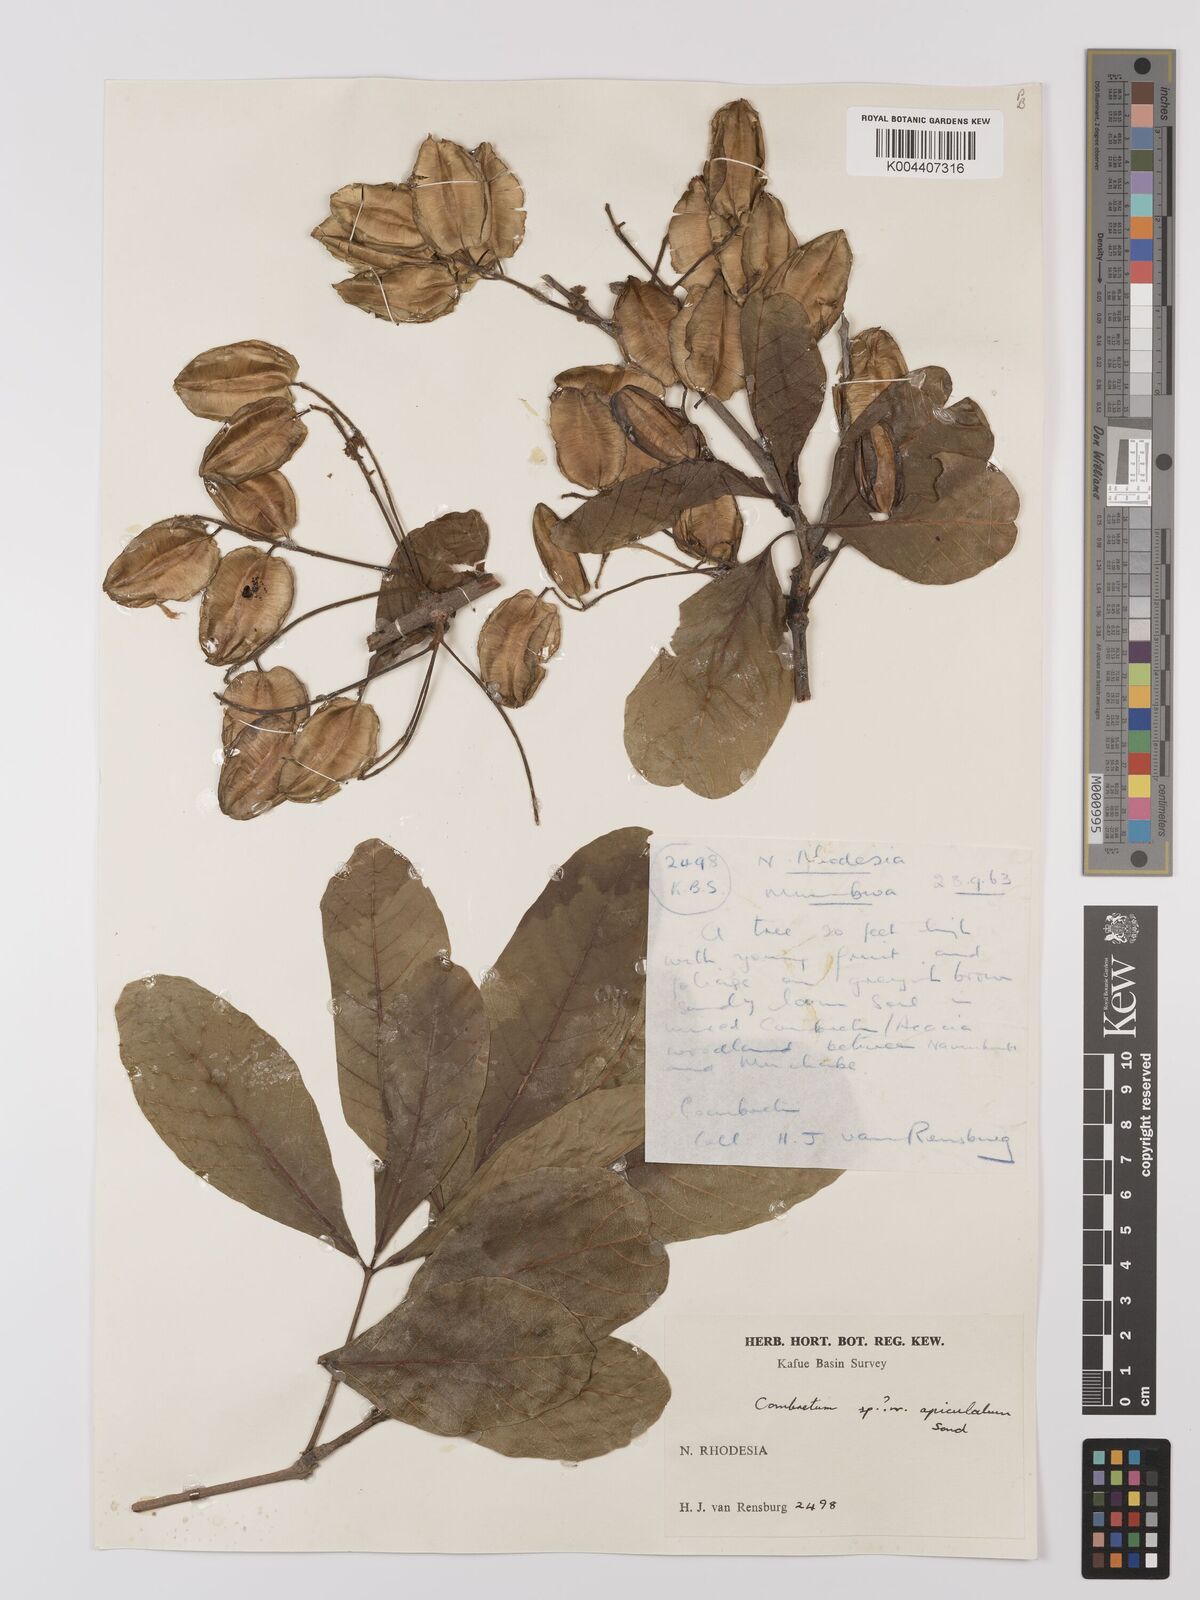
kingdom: Plantae
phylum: Tracheophyta
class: Magnoliopsida
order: Myrtales
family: Combretaceae
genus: Combretum
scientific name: Combretum apiculatum
